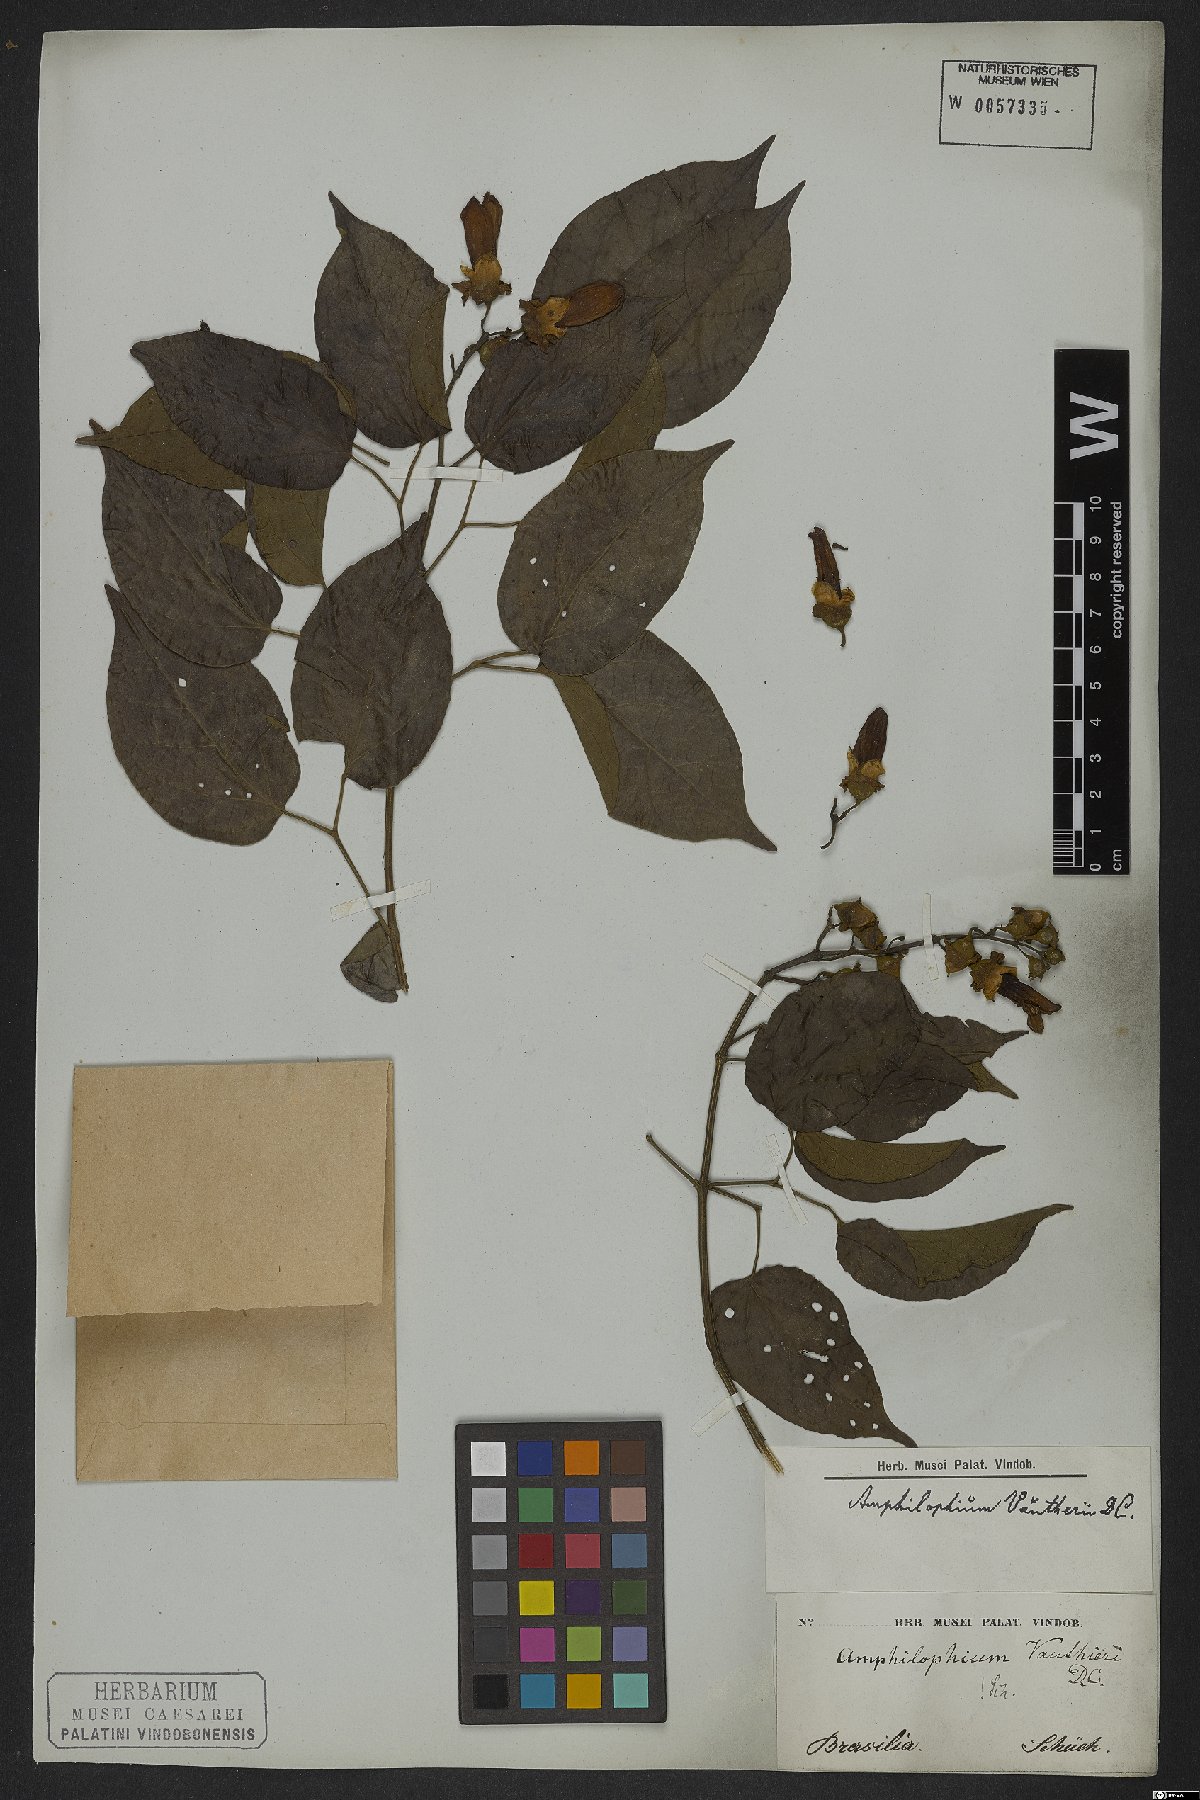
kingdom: Plantae
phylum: Tracheophyta
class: Magnoliopsida
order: Lamiales
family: Bignoniaceae
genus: Amphilophium
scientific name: Amphilophium paniculatum
